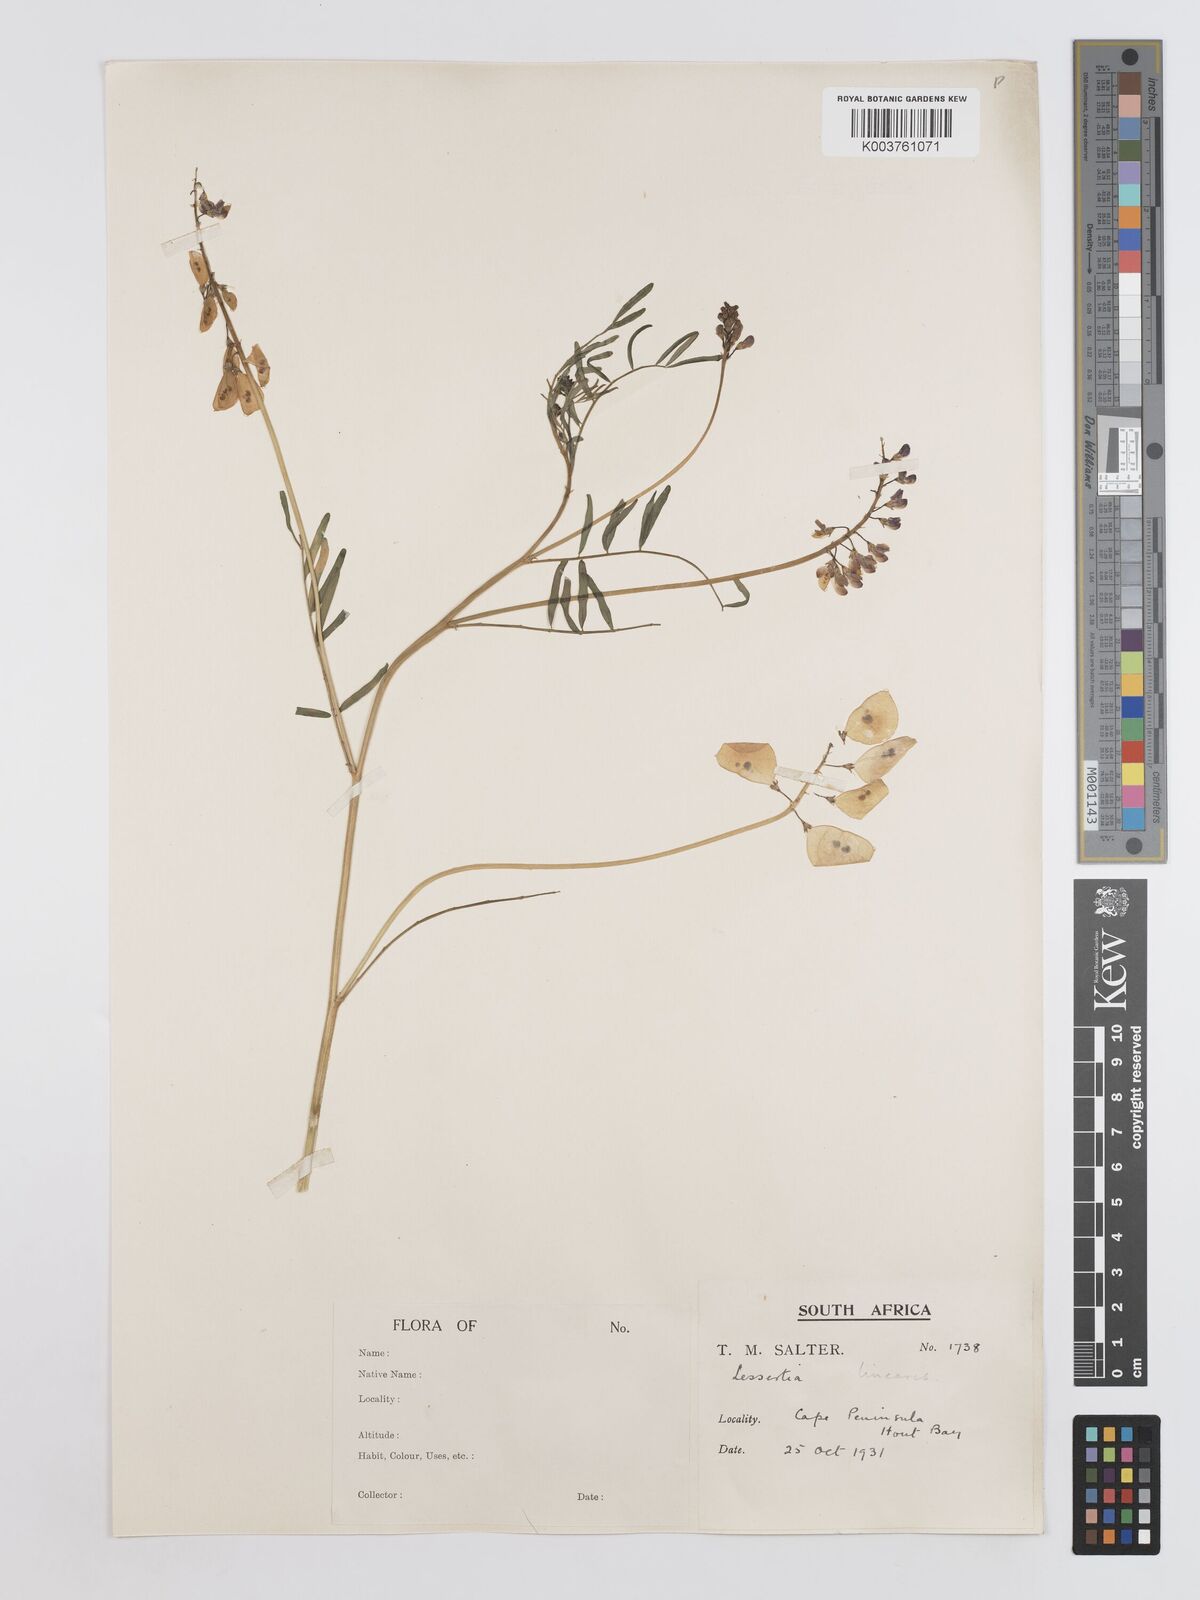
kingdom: Plantae
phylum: Tracheophyta
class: Magnoliopsida
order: Fabales
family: Fabaceae
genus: Lessertia
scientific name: Lessertia herbacea
